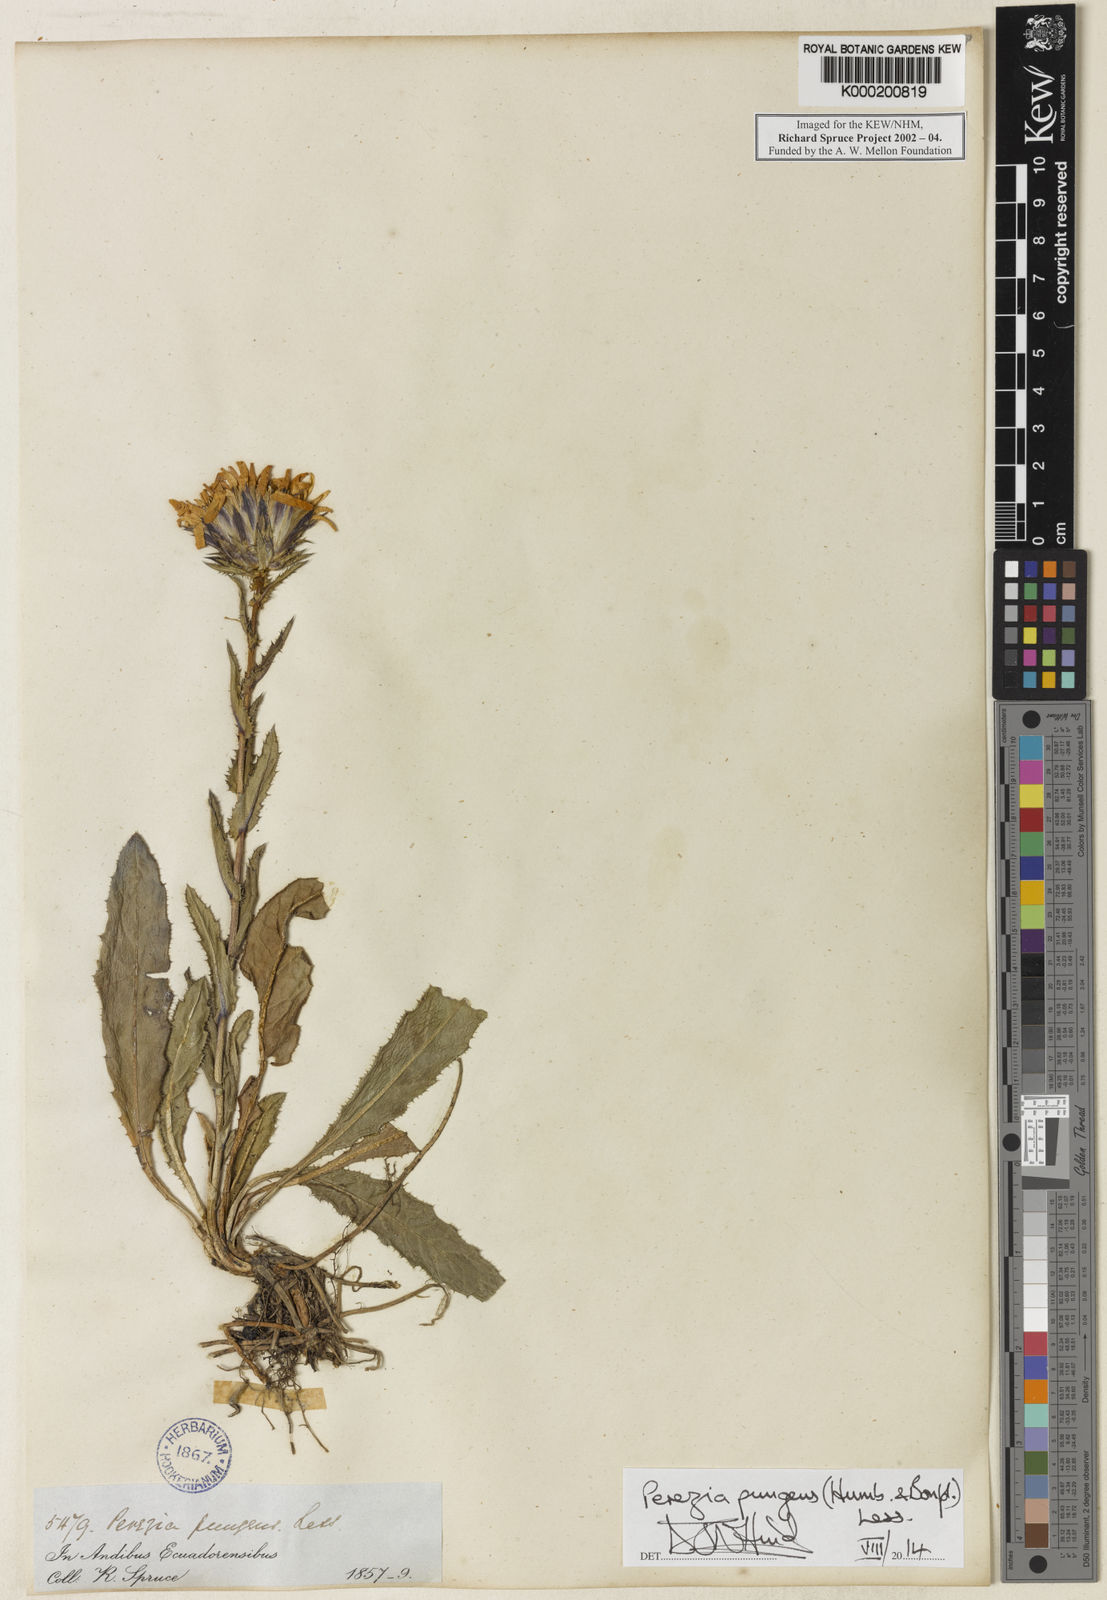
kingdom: Plantae
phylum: Tracheophyta
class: Magnoliopsida
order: Asterales
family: Asteraceae
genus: Perezia
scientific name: Perezia pungens
